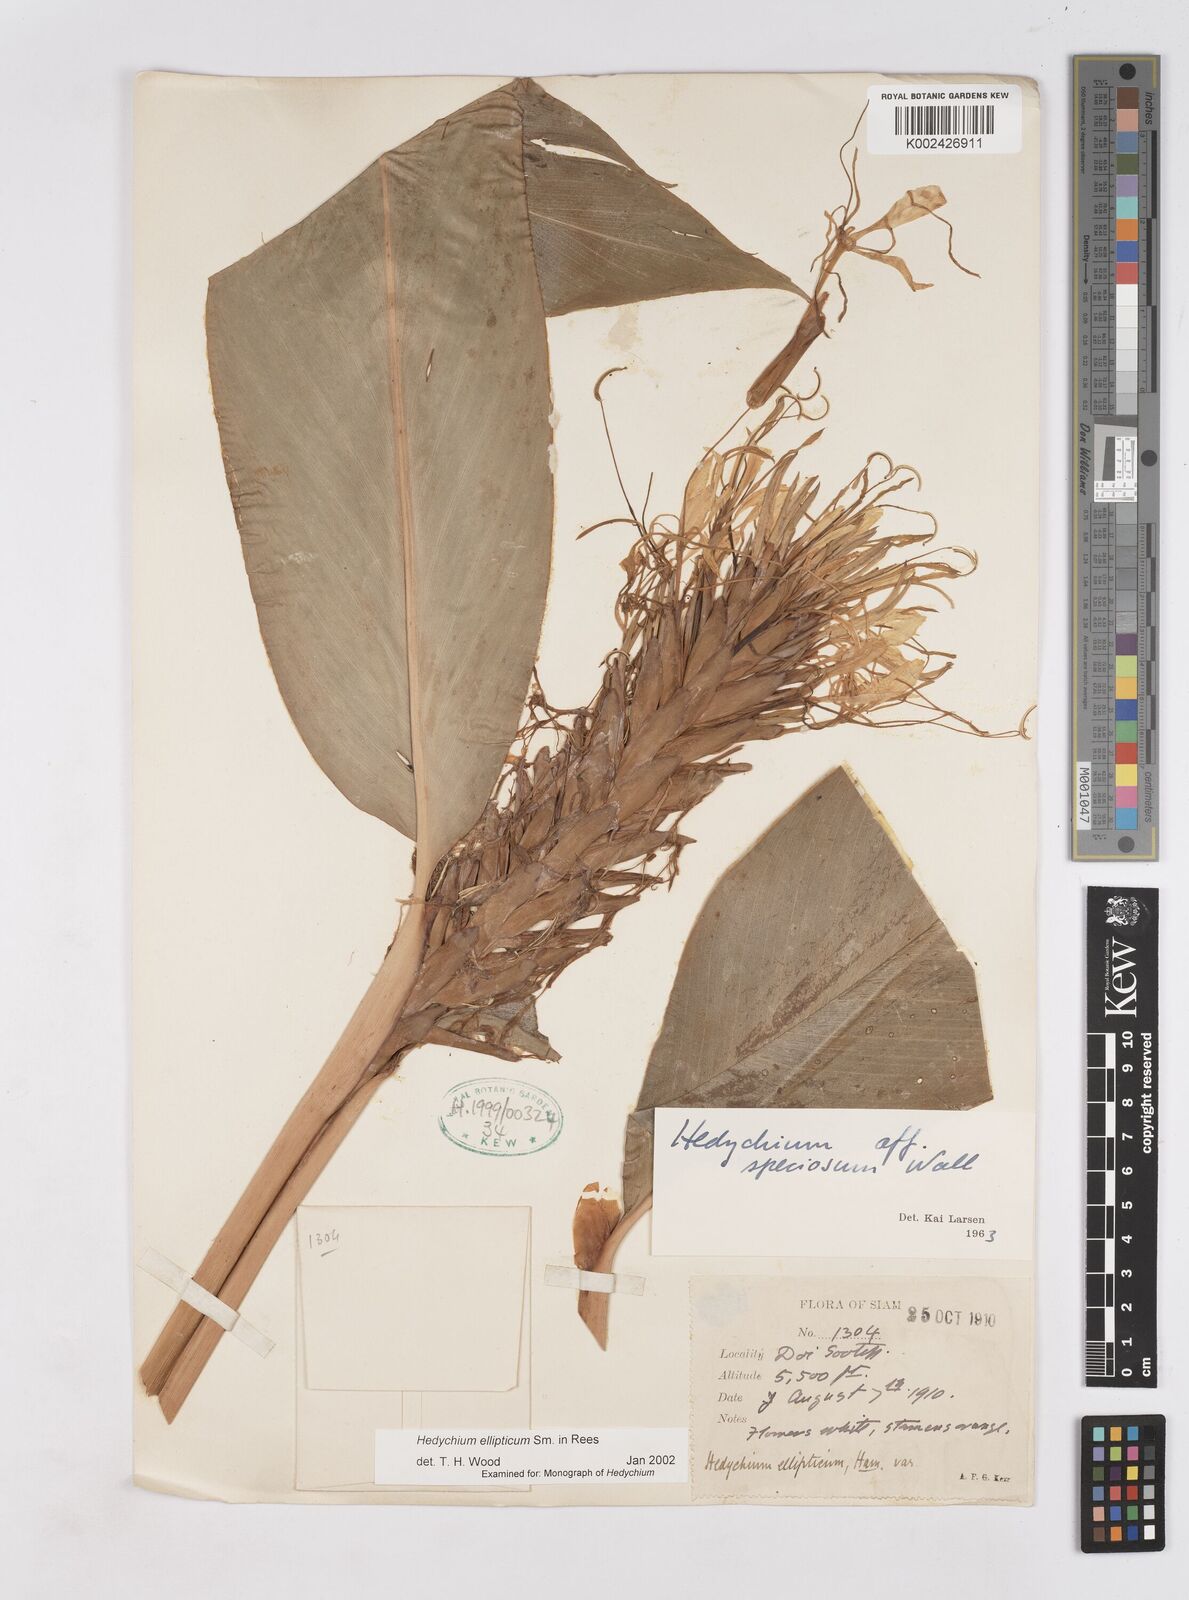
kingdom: Plantae
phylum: Tracheophyta
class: Liliopsida
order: Zingiberales
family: Zingiberaceae
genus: Hedychium
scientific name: Hedychium ellipticum
